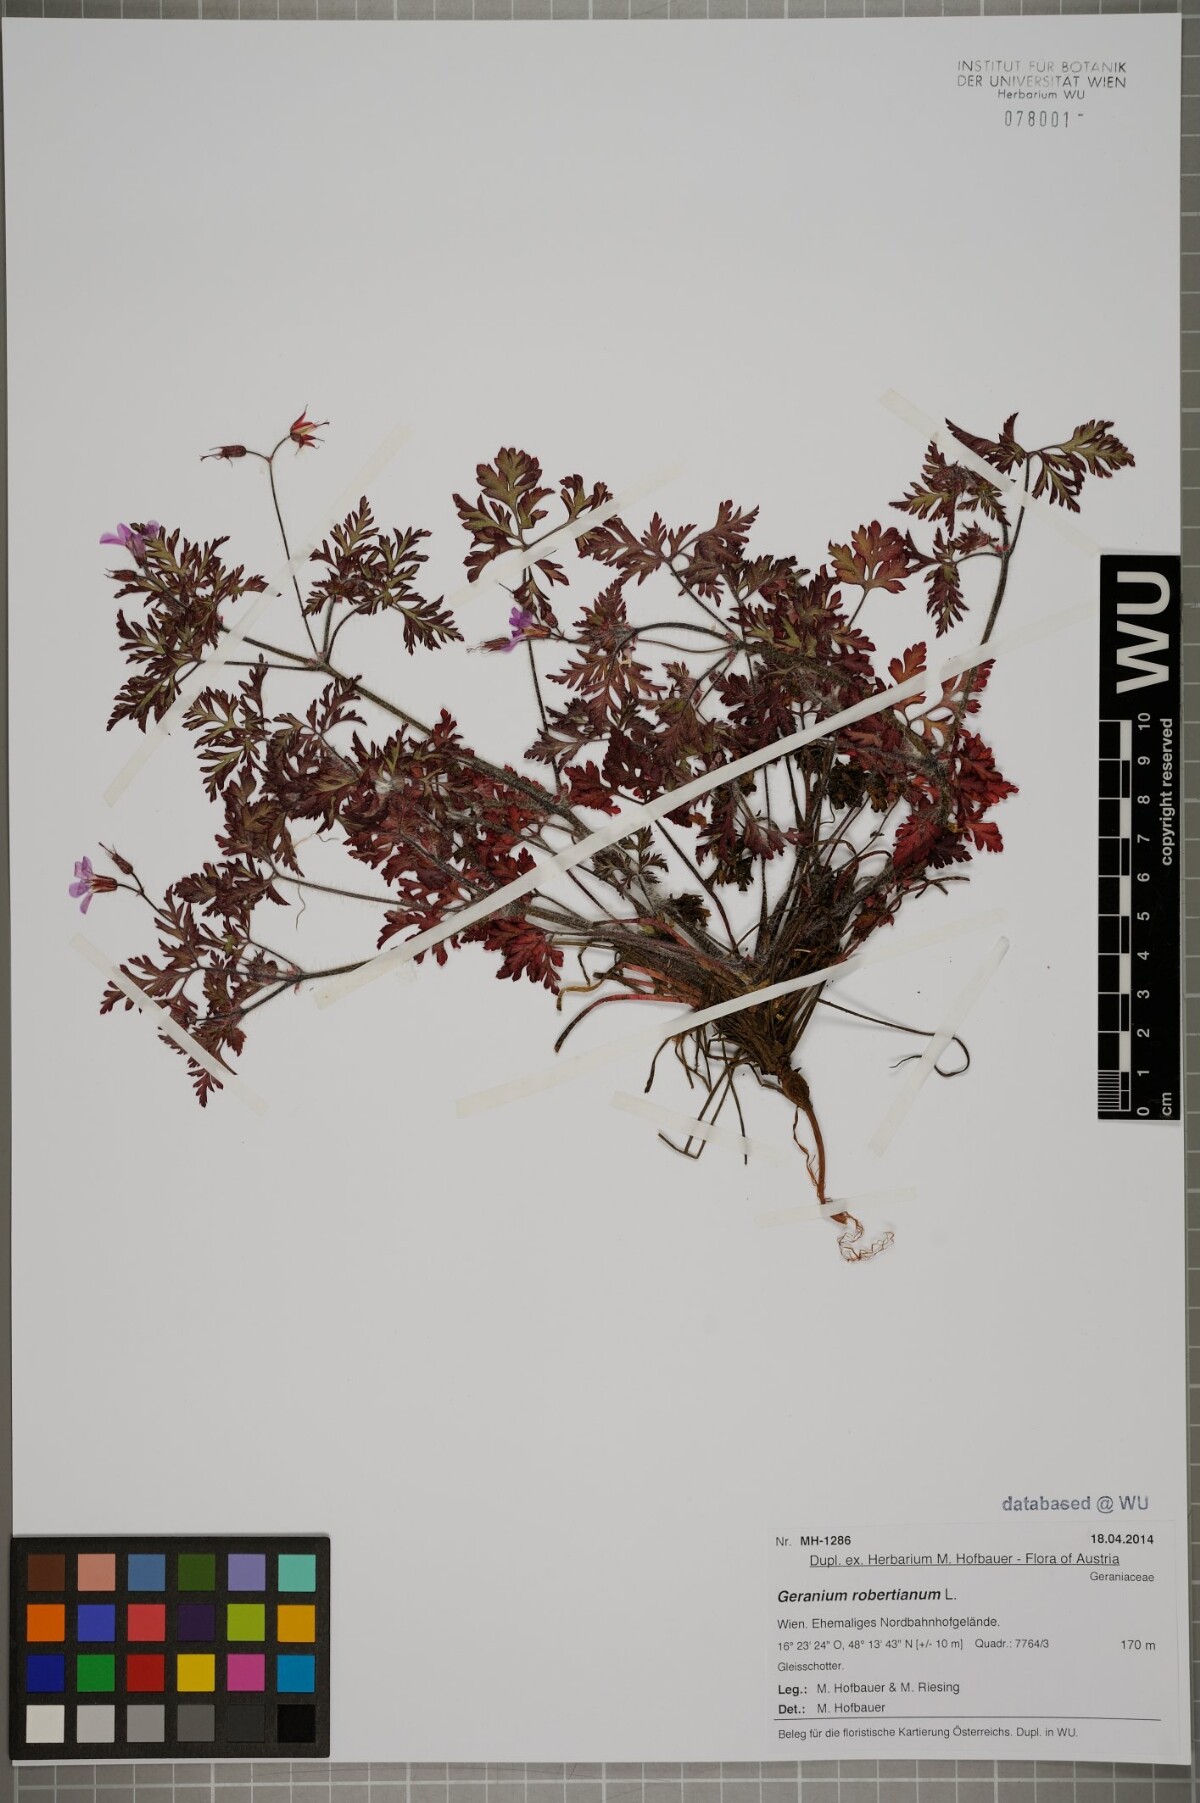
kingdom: Plantae
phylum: Tracheophyta
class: Magnoliopsida
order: Geraniales
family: Geraniaceae
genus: Geranium
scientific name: Geranium robertianum
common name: Herb-robert
